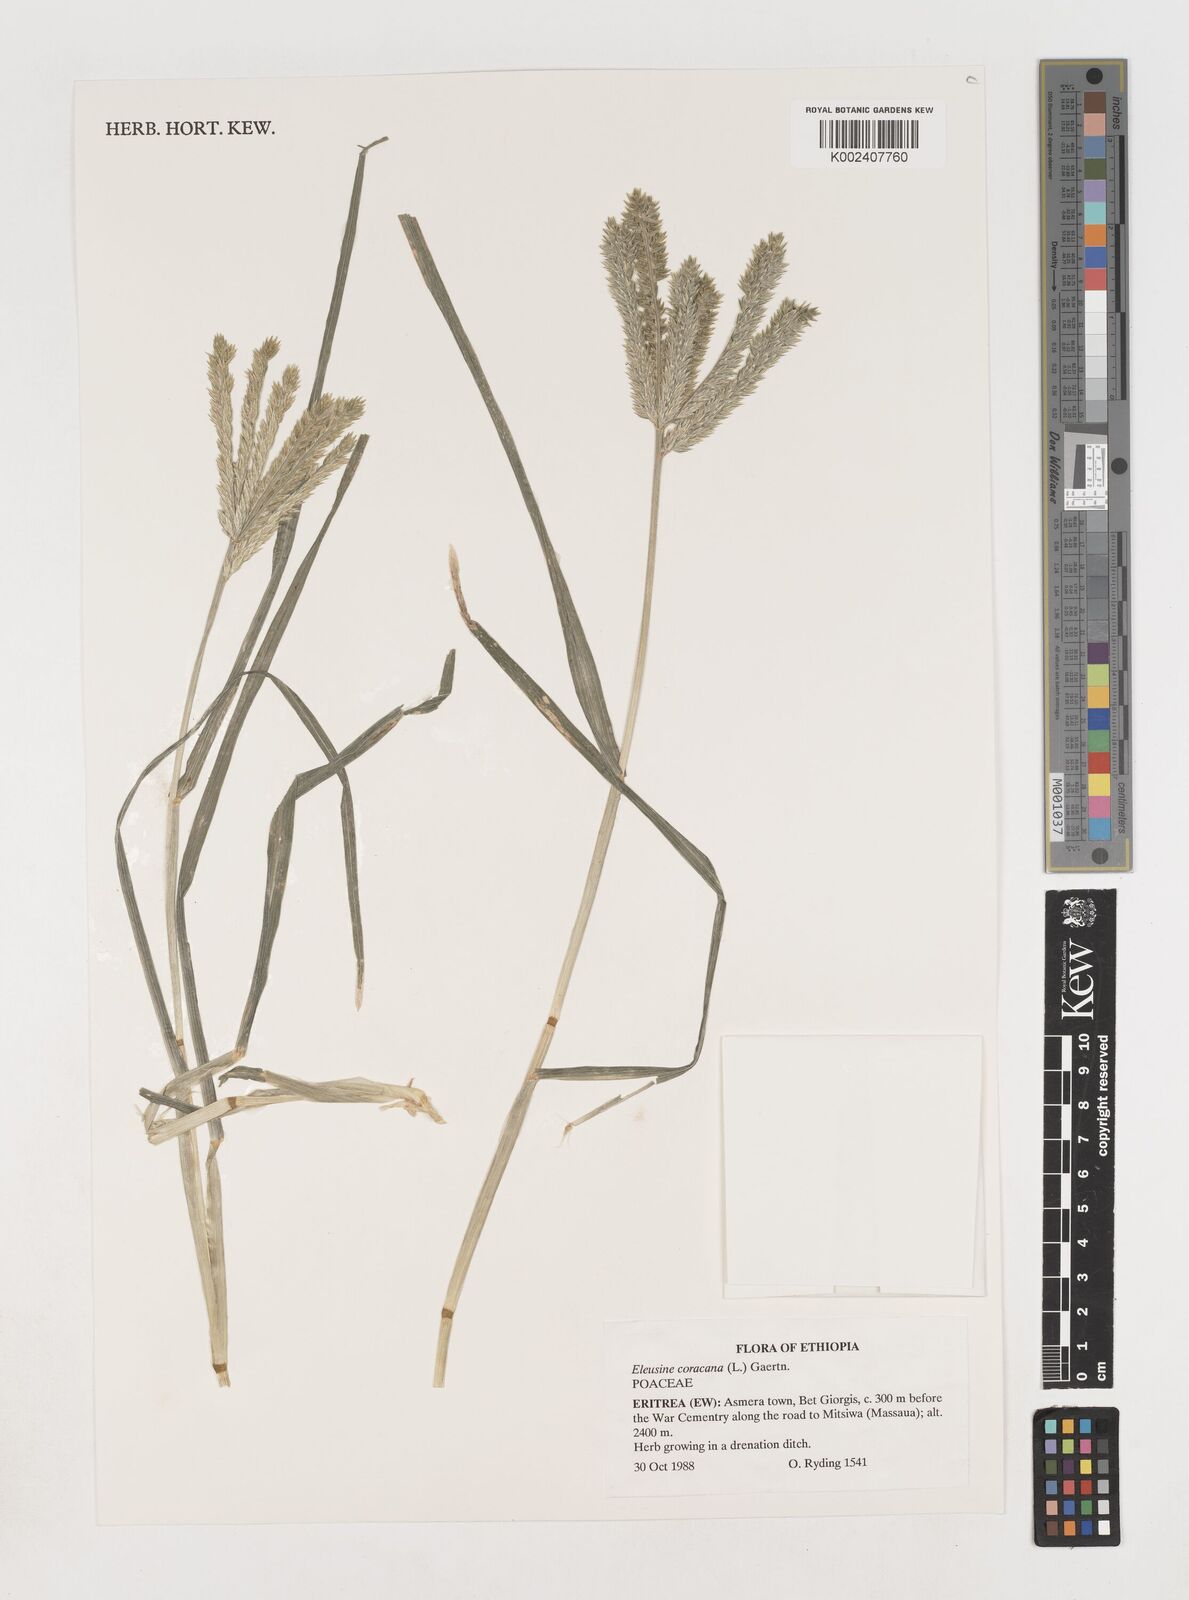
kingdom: Plantae
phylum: Tracheophyta
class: Liliopsida
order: Poales
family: Poaceae
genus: Eleusine
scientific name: Eleusine coracana
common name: Finger millet
